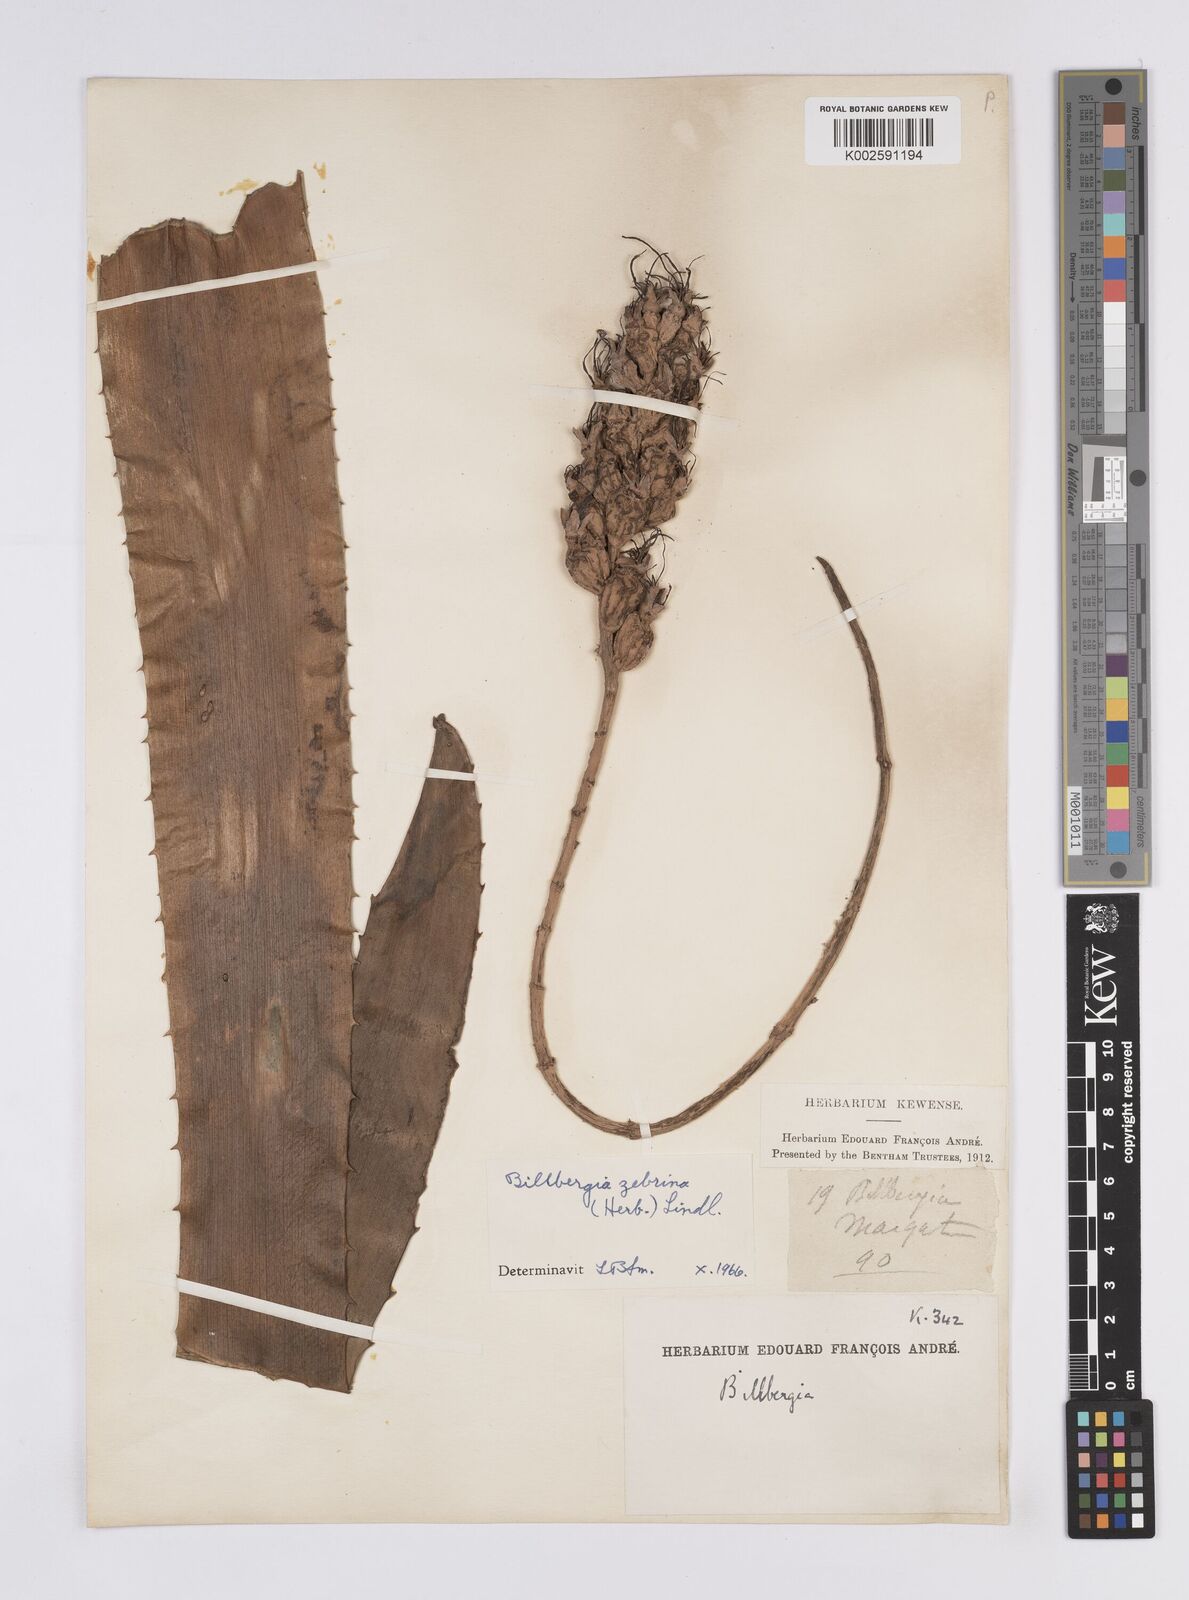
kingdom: Plantae
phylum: Tracheophyta
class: Liliopsida
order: Poales
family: Bromeliaceae
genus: Billbergia
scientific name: Billbergia zebrina
